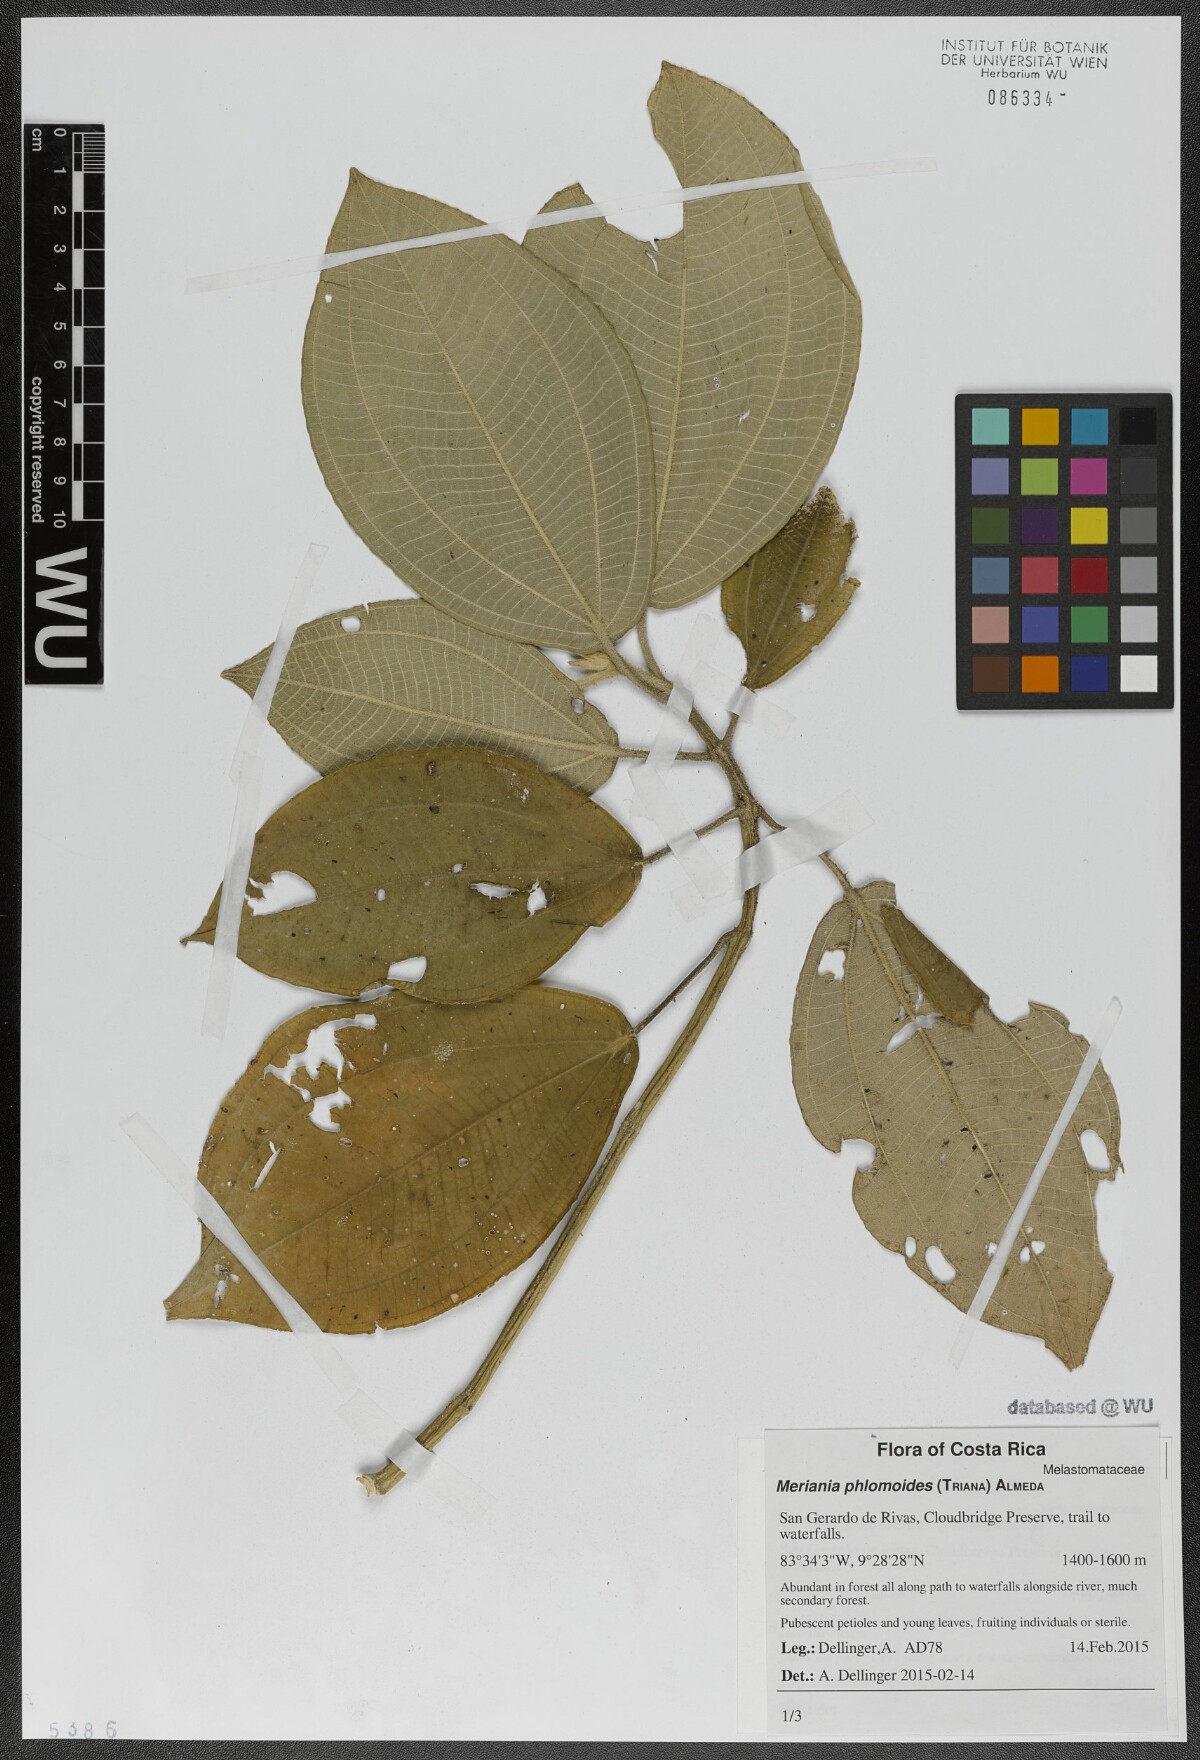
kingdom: Plantae
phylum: Tracheophyta
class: Magnoliopsida
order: Myrtales
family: Melastomataceae
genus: Meriania
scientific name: Meriania phlomoides
